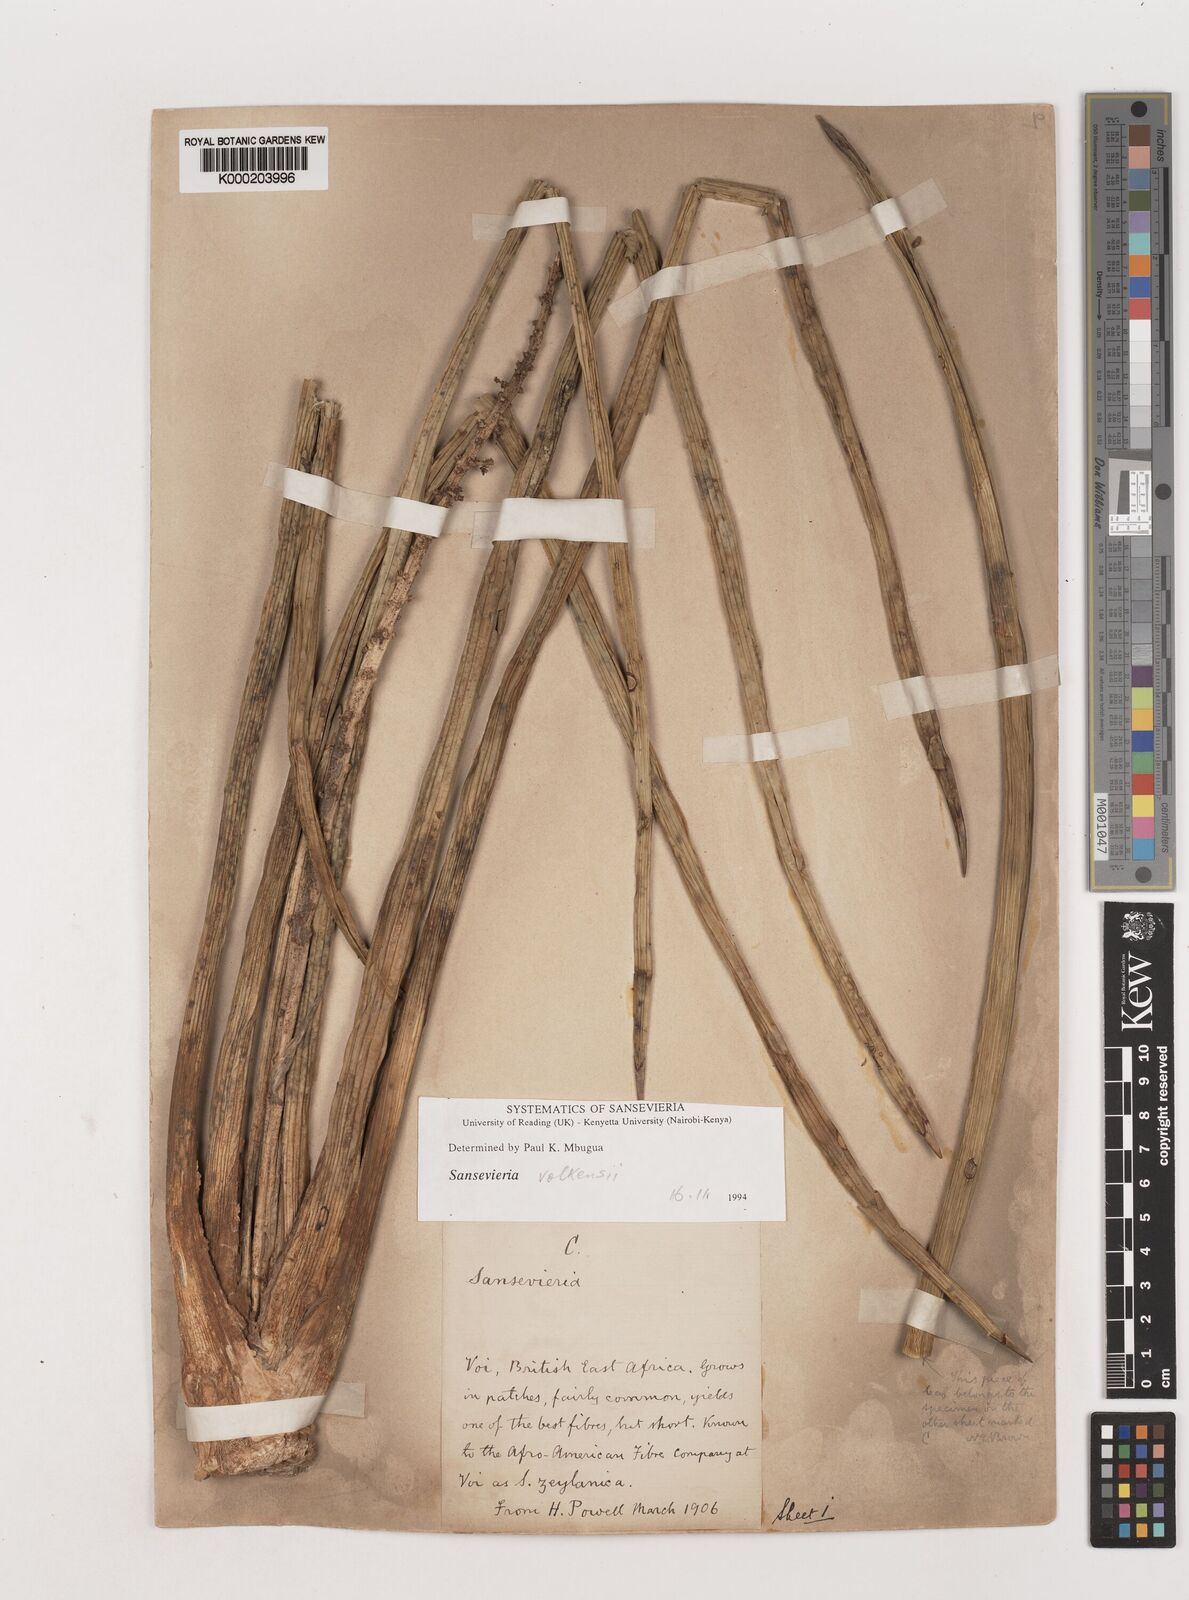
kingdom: Plantae
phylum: Tracheophyta
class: Liliopsida
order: Asparagales
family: Asparagaceae
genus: Dracaena
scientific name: Dracaena
